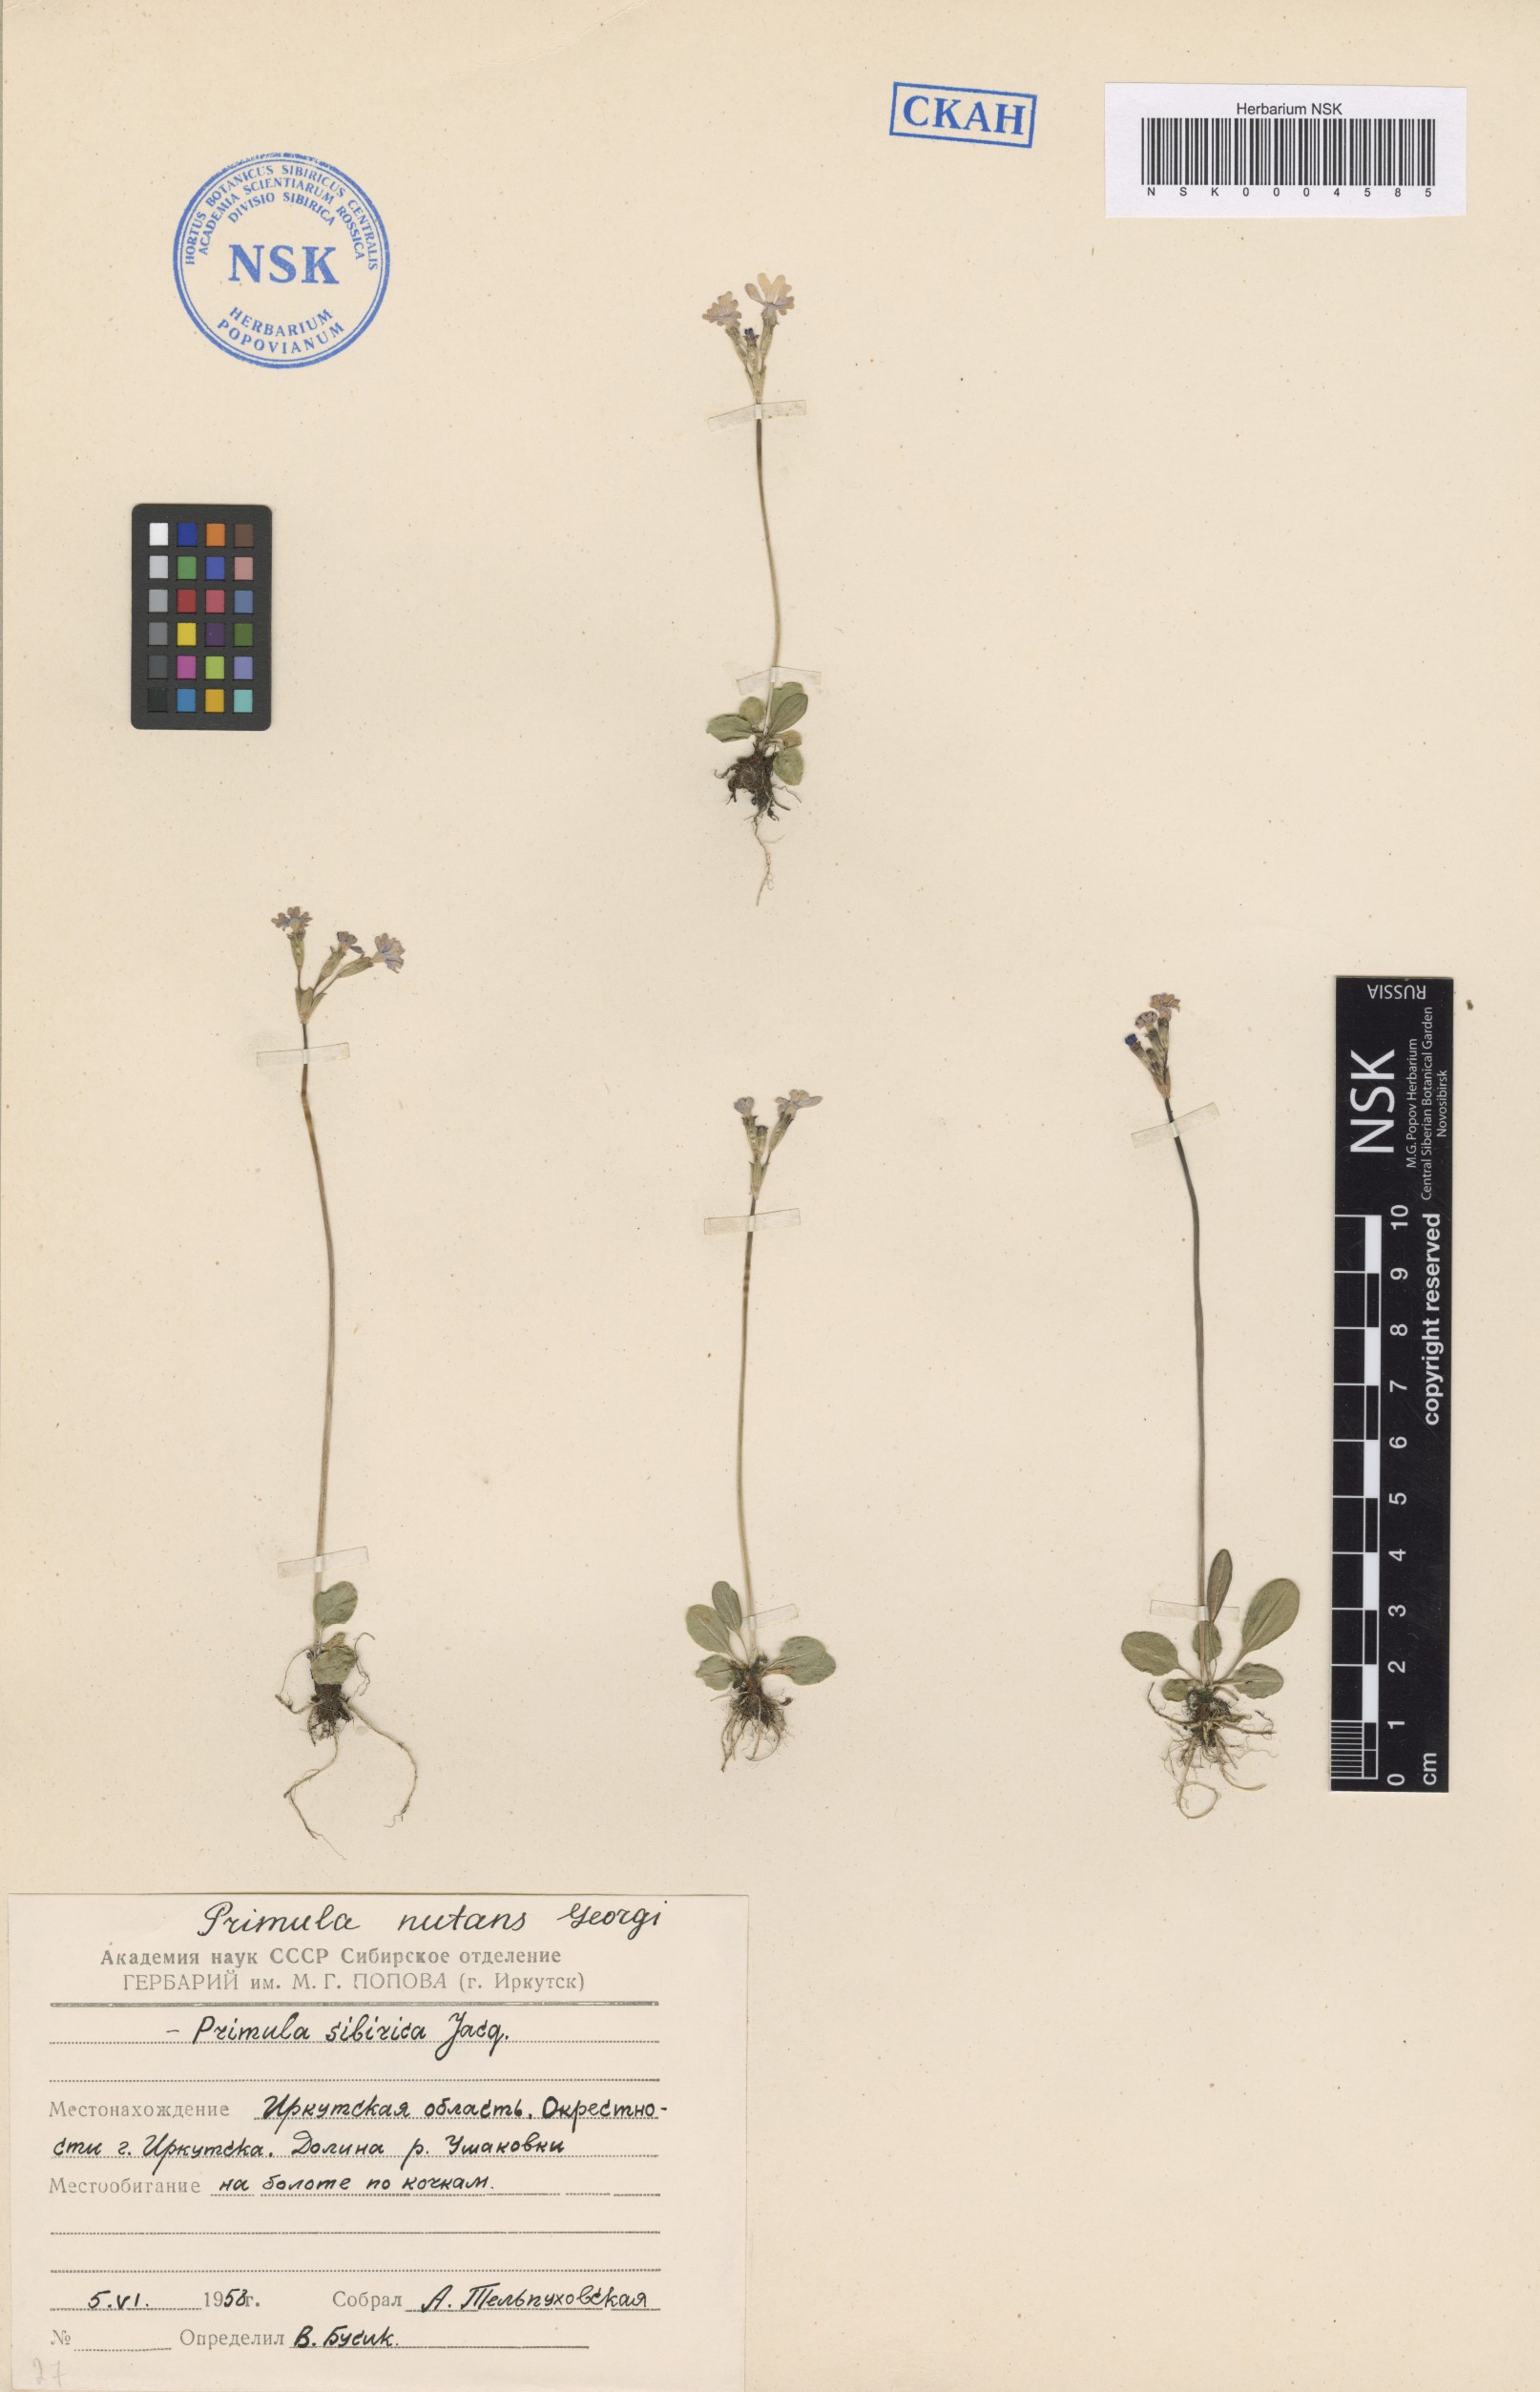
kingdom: Plantae
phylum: Tracheophyta
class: Magnoliopsida
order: Ericales
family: Primulaceae
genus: Primula
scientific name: Primula nutans
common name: Siberian primrose
